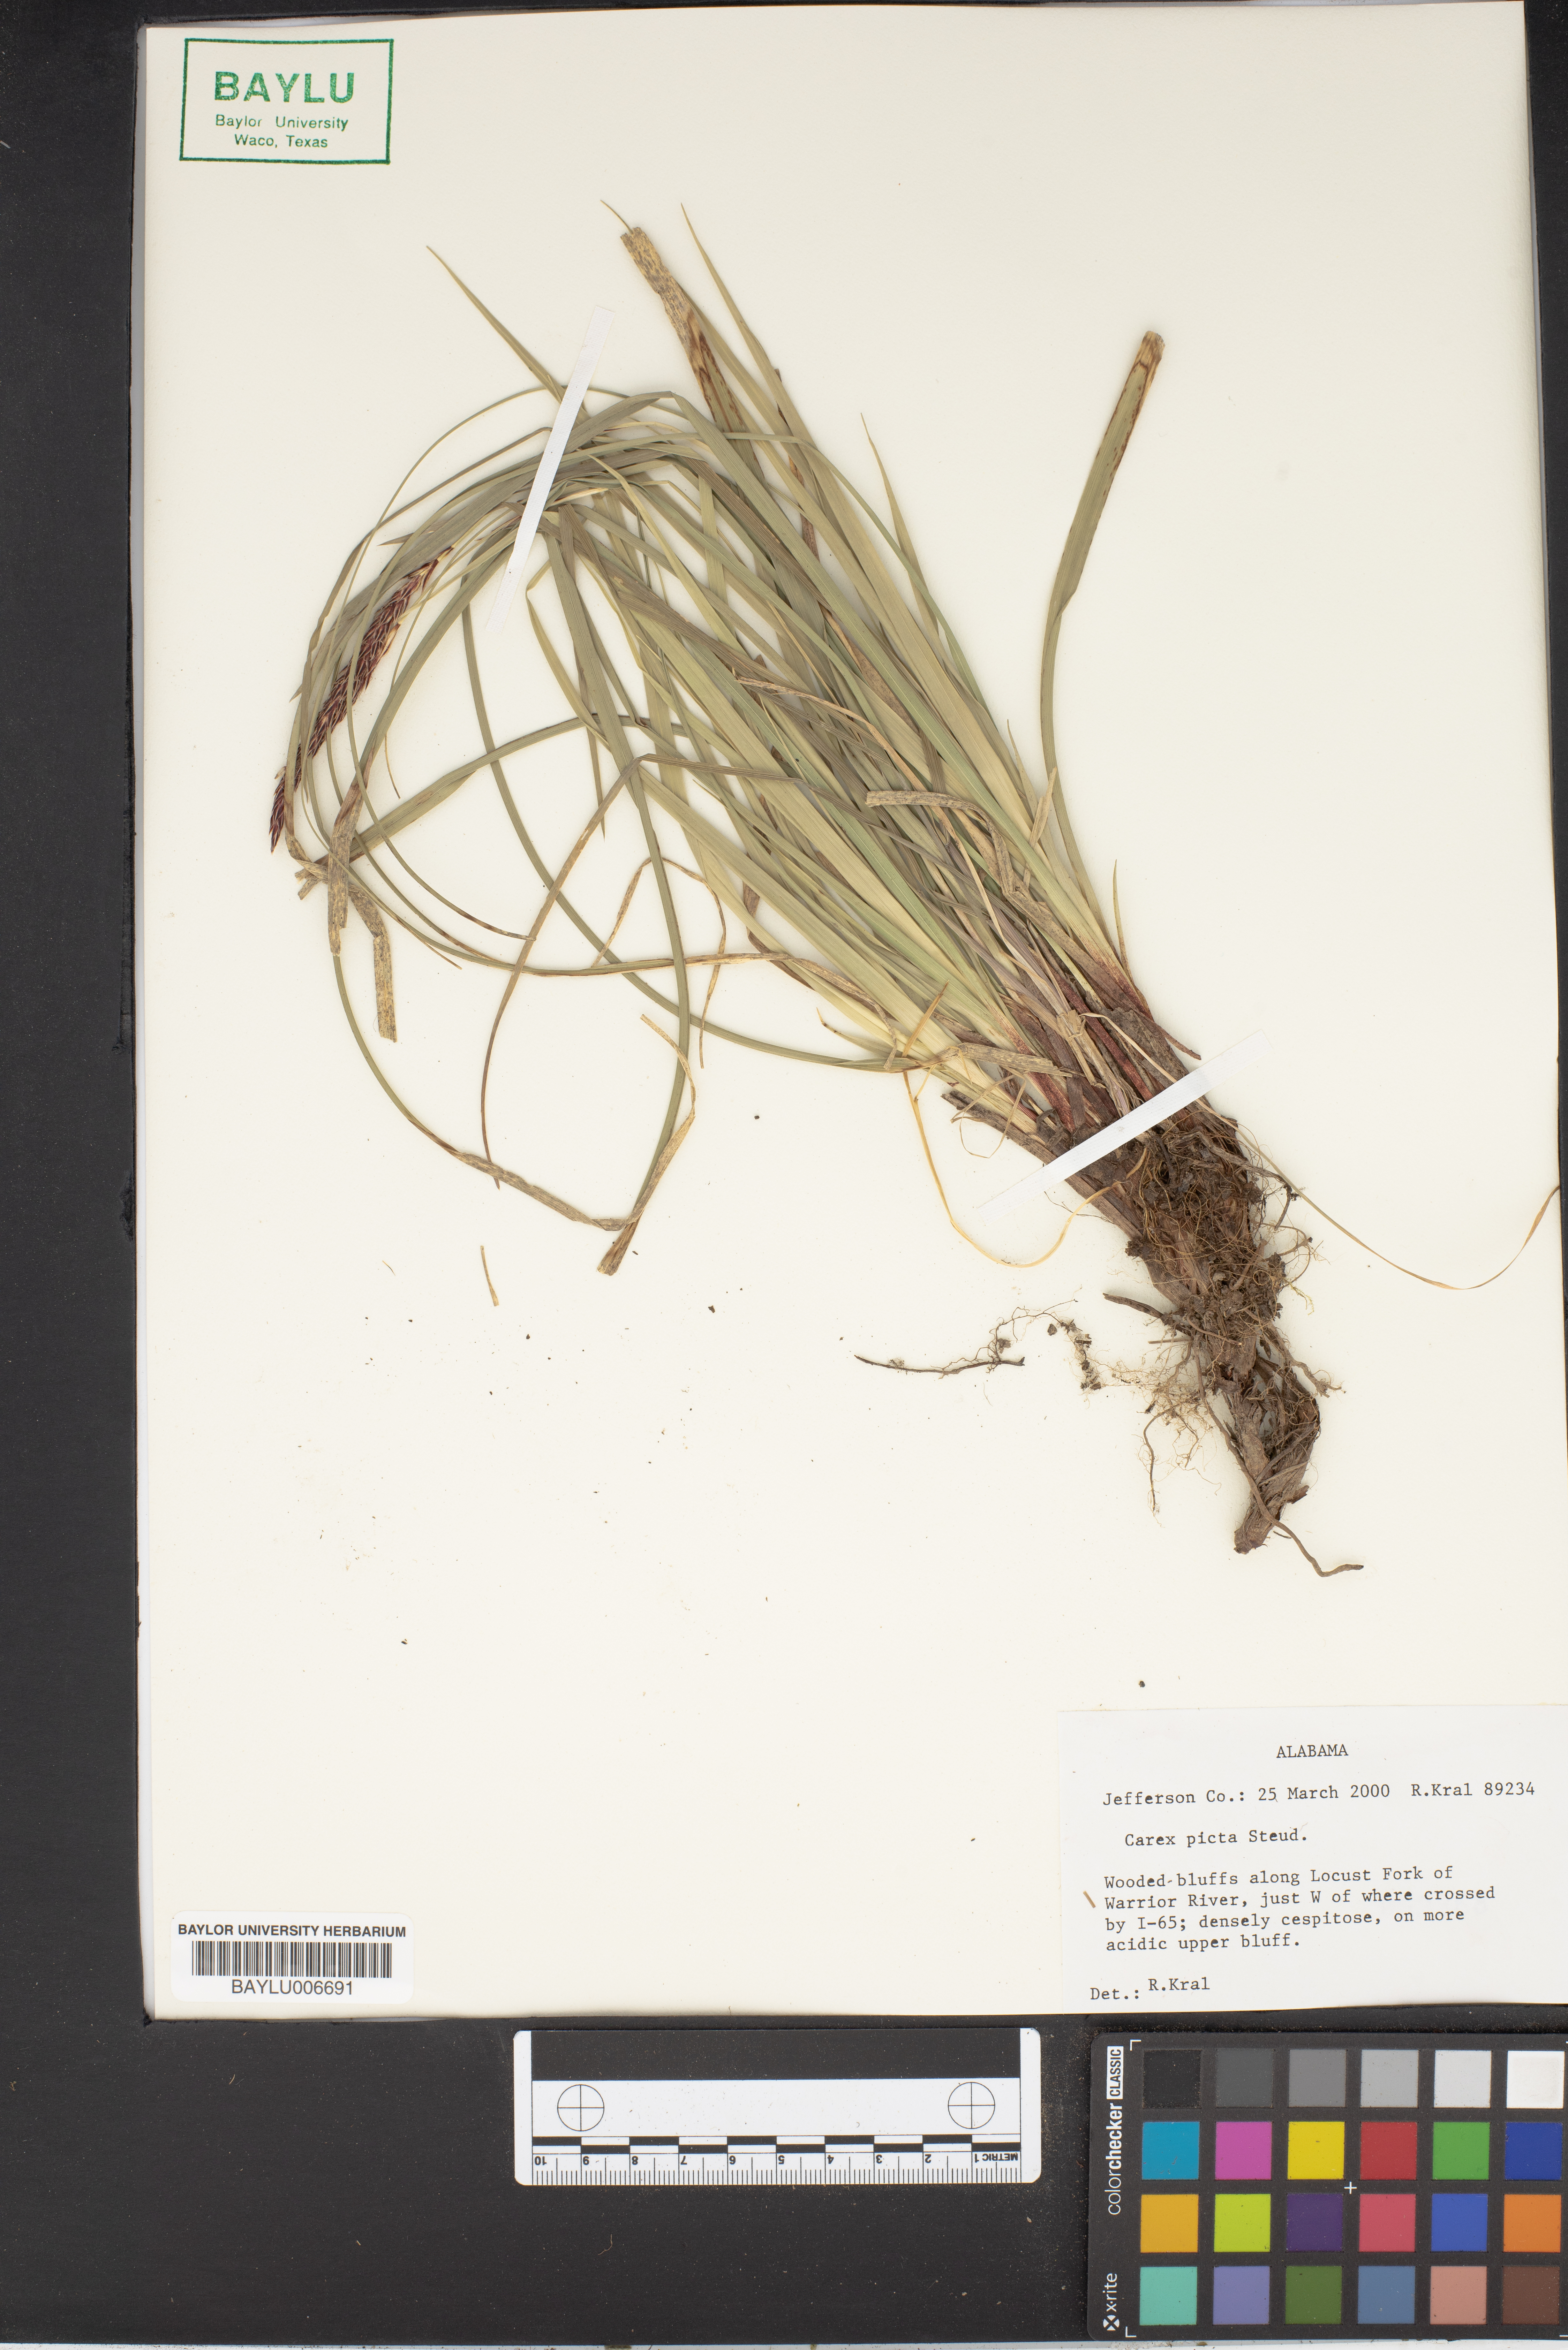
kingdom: Plantae
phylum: Tracheophyta
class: Liliopsida
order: Poales
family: Cyperaceae
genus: Carex
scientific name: Carex picta
